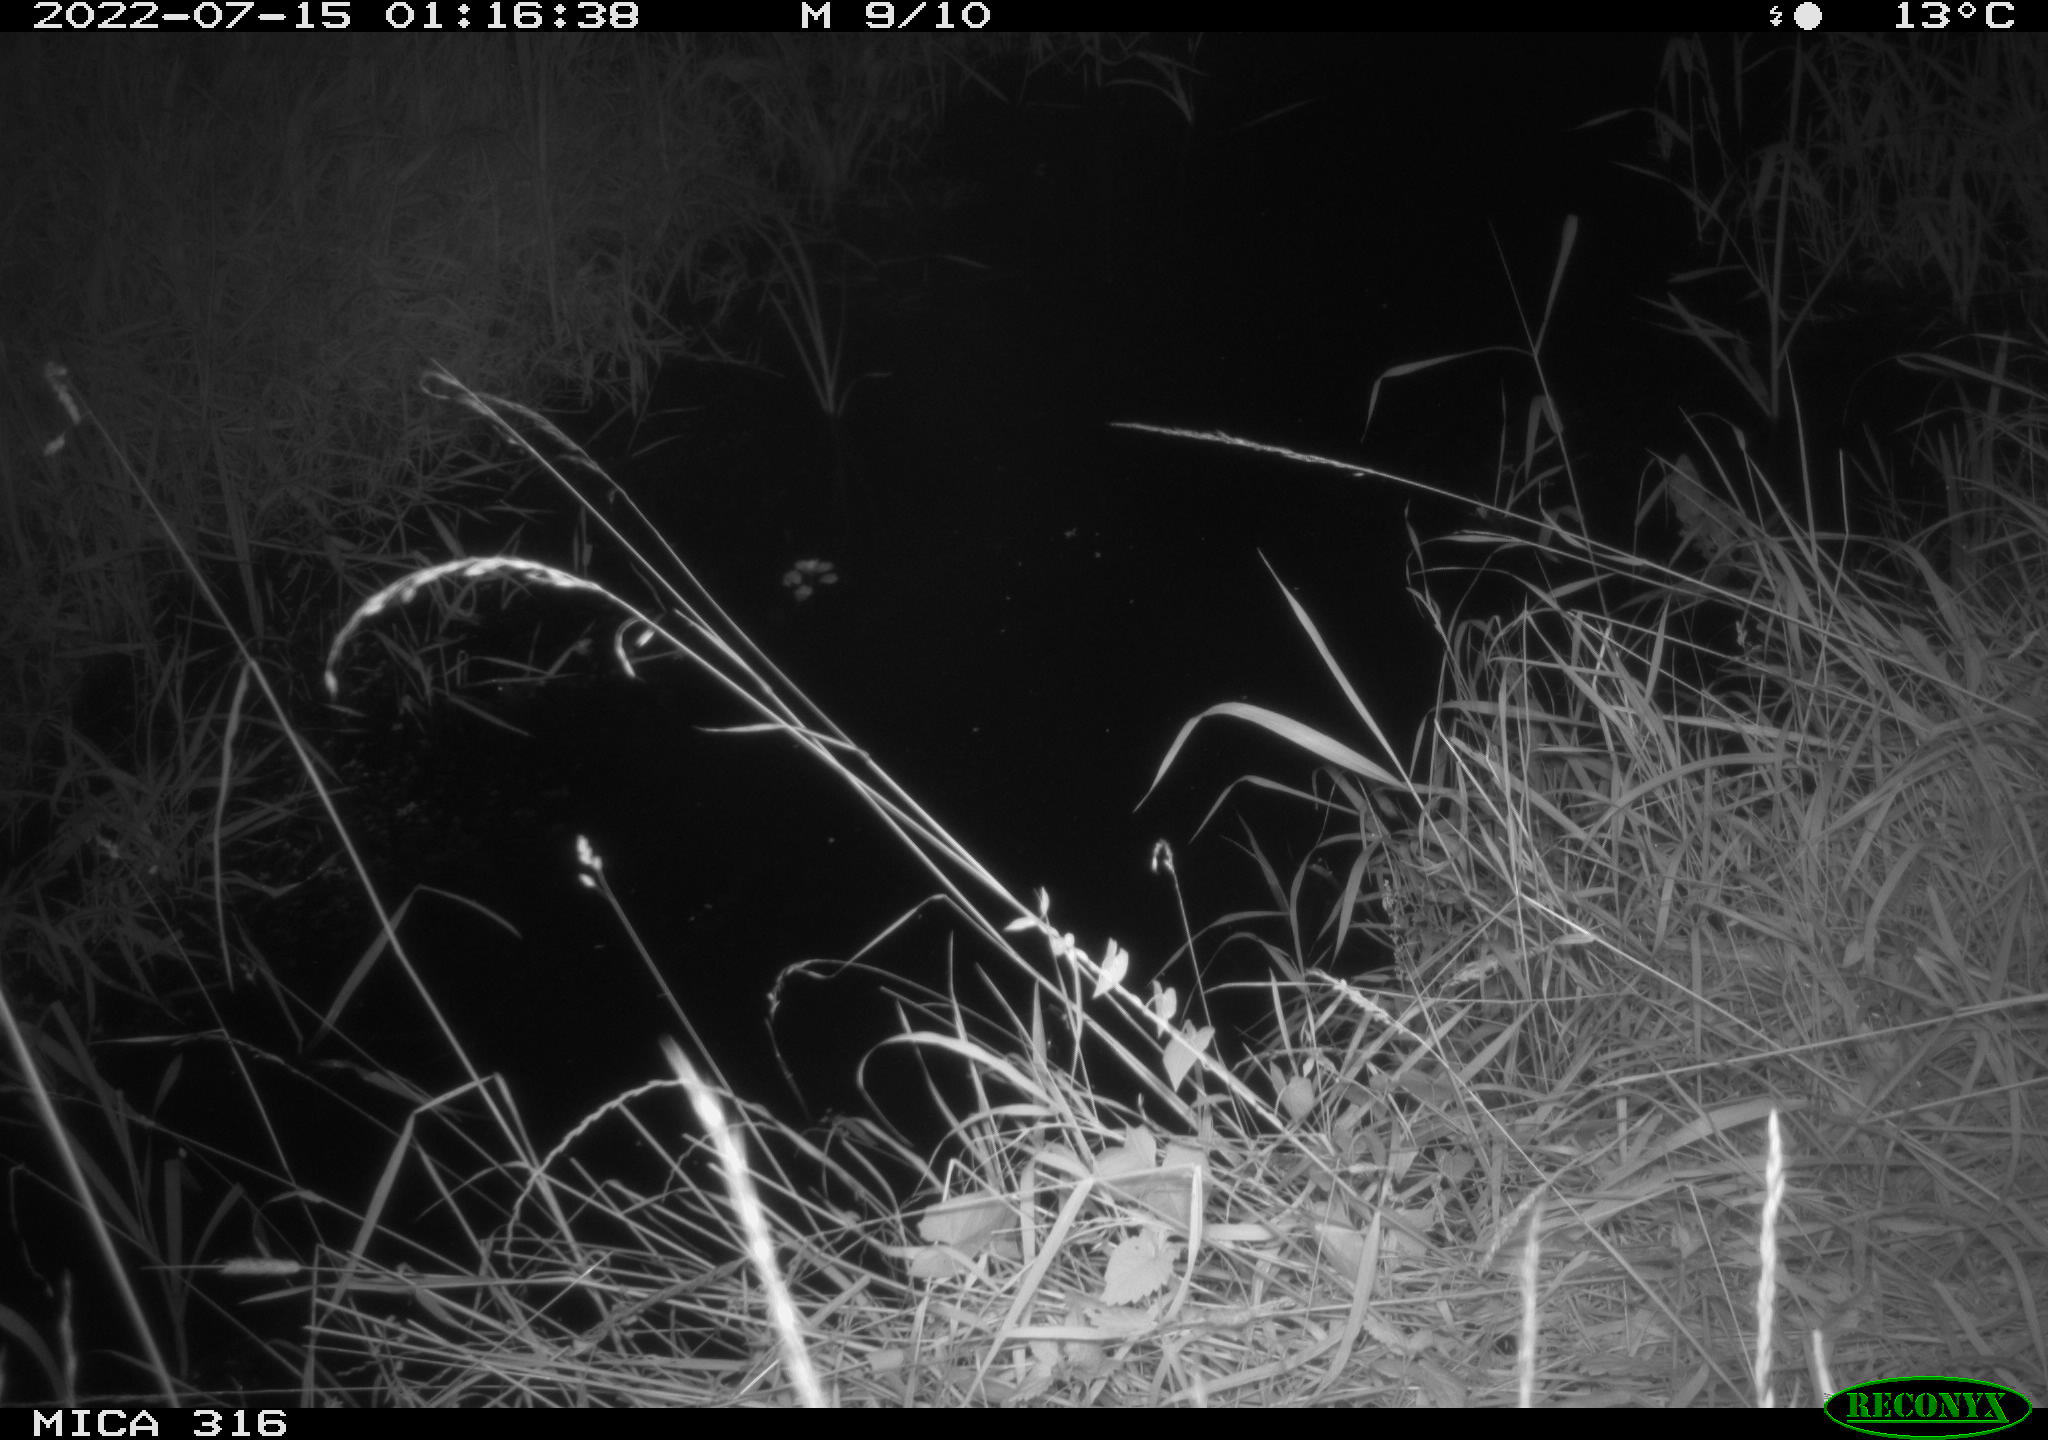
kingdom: Animalia
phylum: Chordata
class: Mammalia
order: Carnivora
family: Canidae
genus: Vulpes
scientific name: Vulpes vulpes
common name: Red fox
